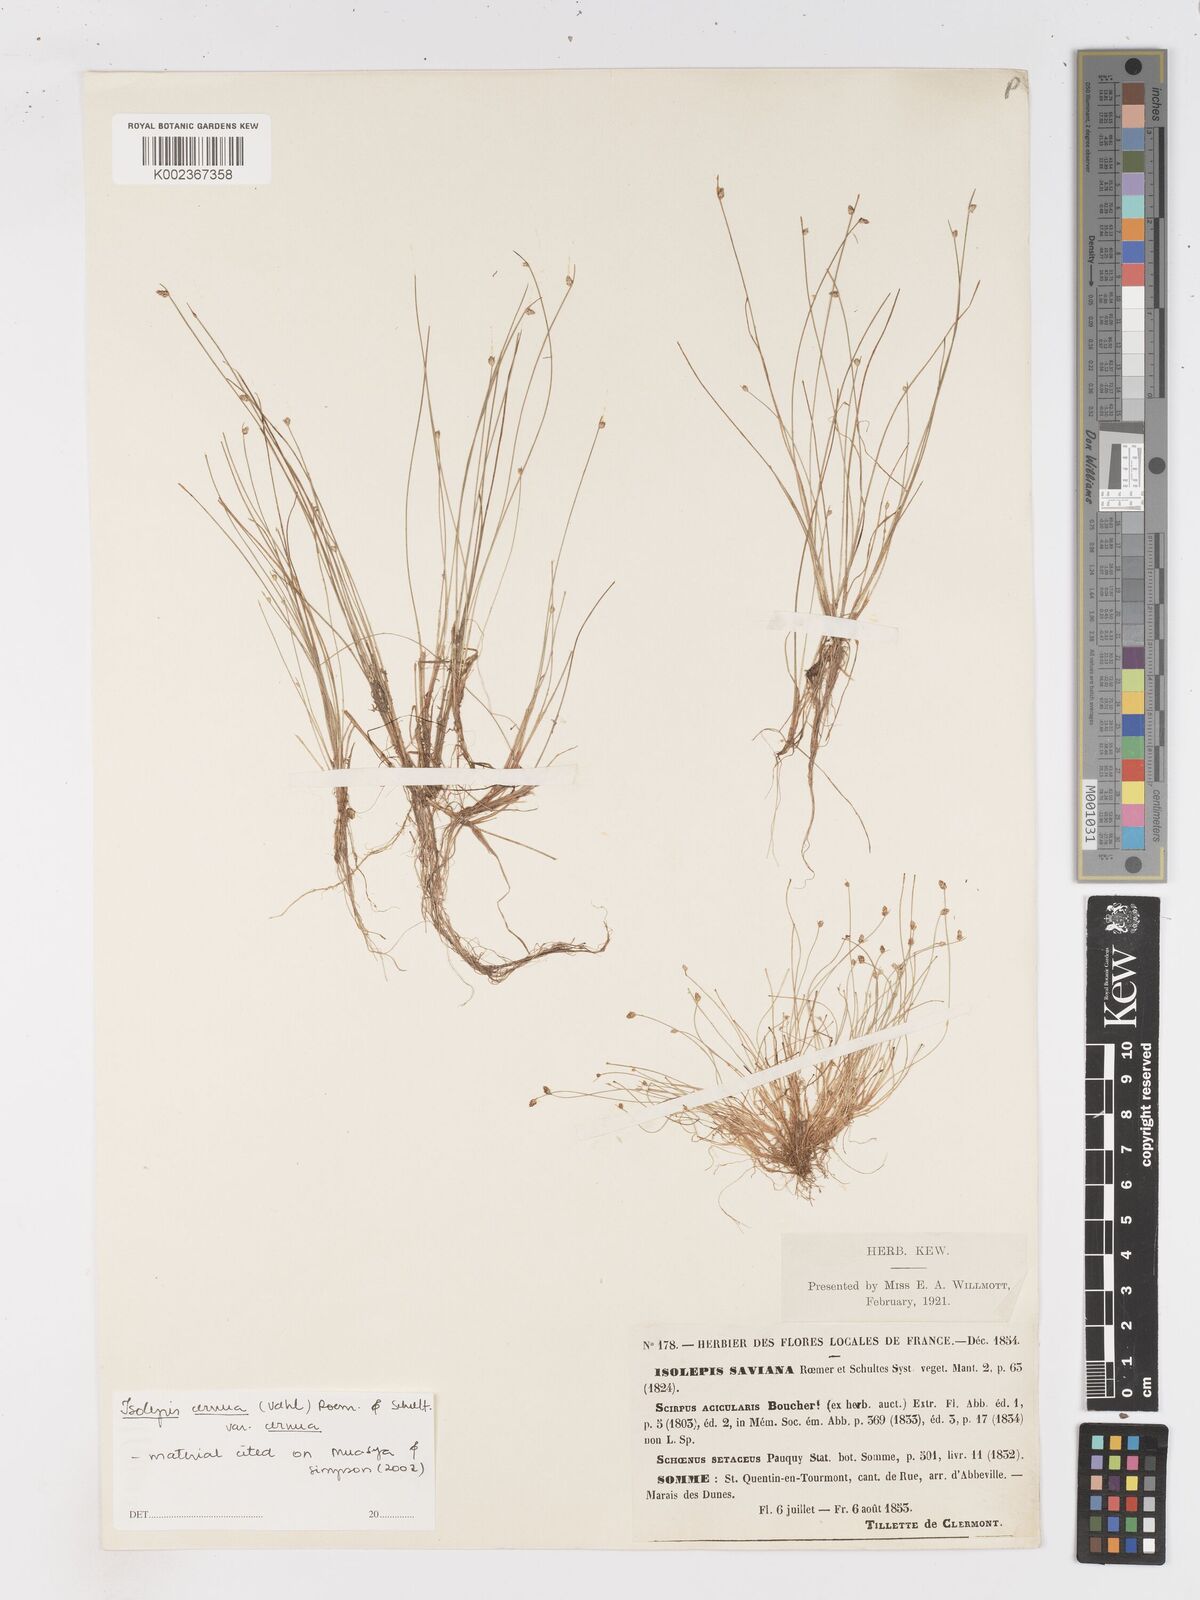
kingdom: Plantae
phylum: Tracheophyta
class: Liliopsida
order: Poales
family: Cyperaceae
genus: Isolepis
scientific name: Isolepis cernua
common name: Slender club-rush
